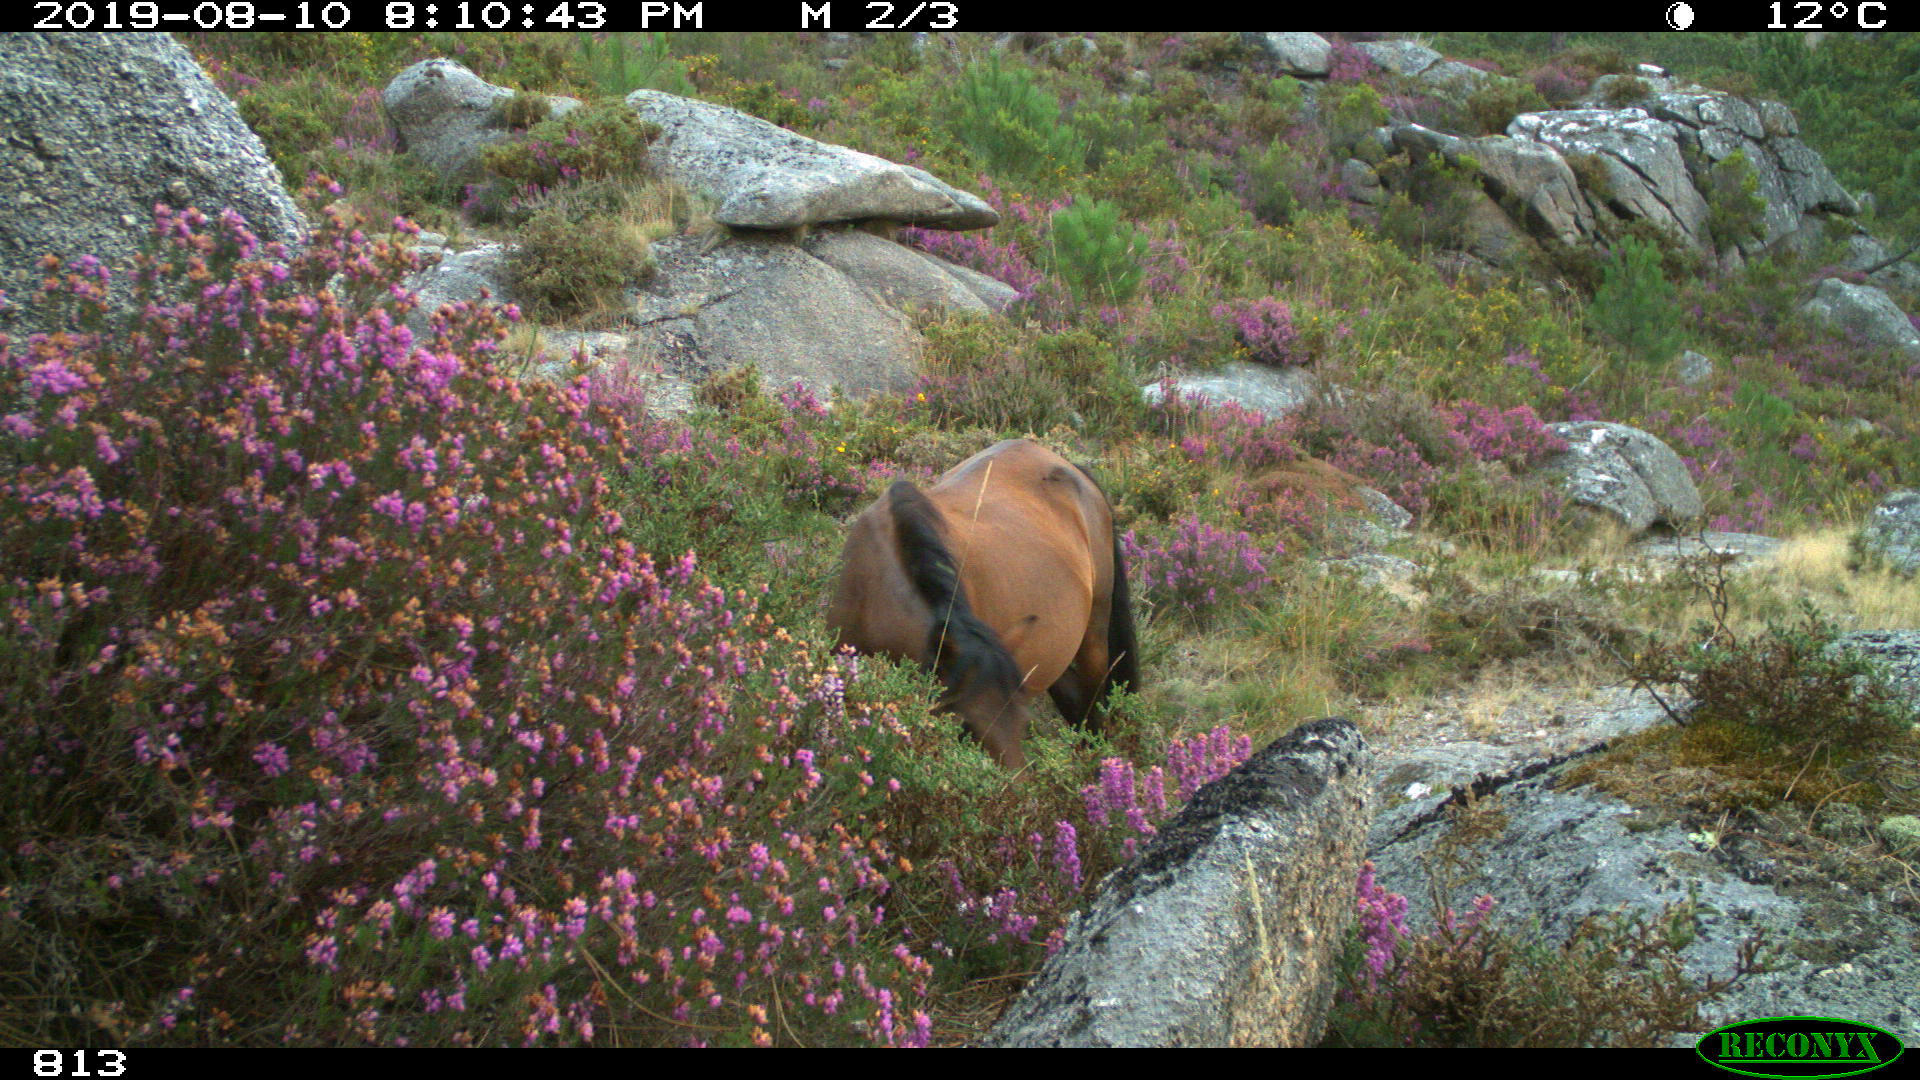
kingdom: Animalia
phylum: Chordata
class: Mammalia
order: Perissodactyla
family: Equidae
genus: Equus
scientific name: Equus caballus
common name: Horse
